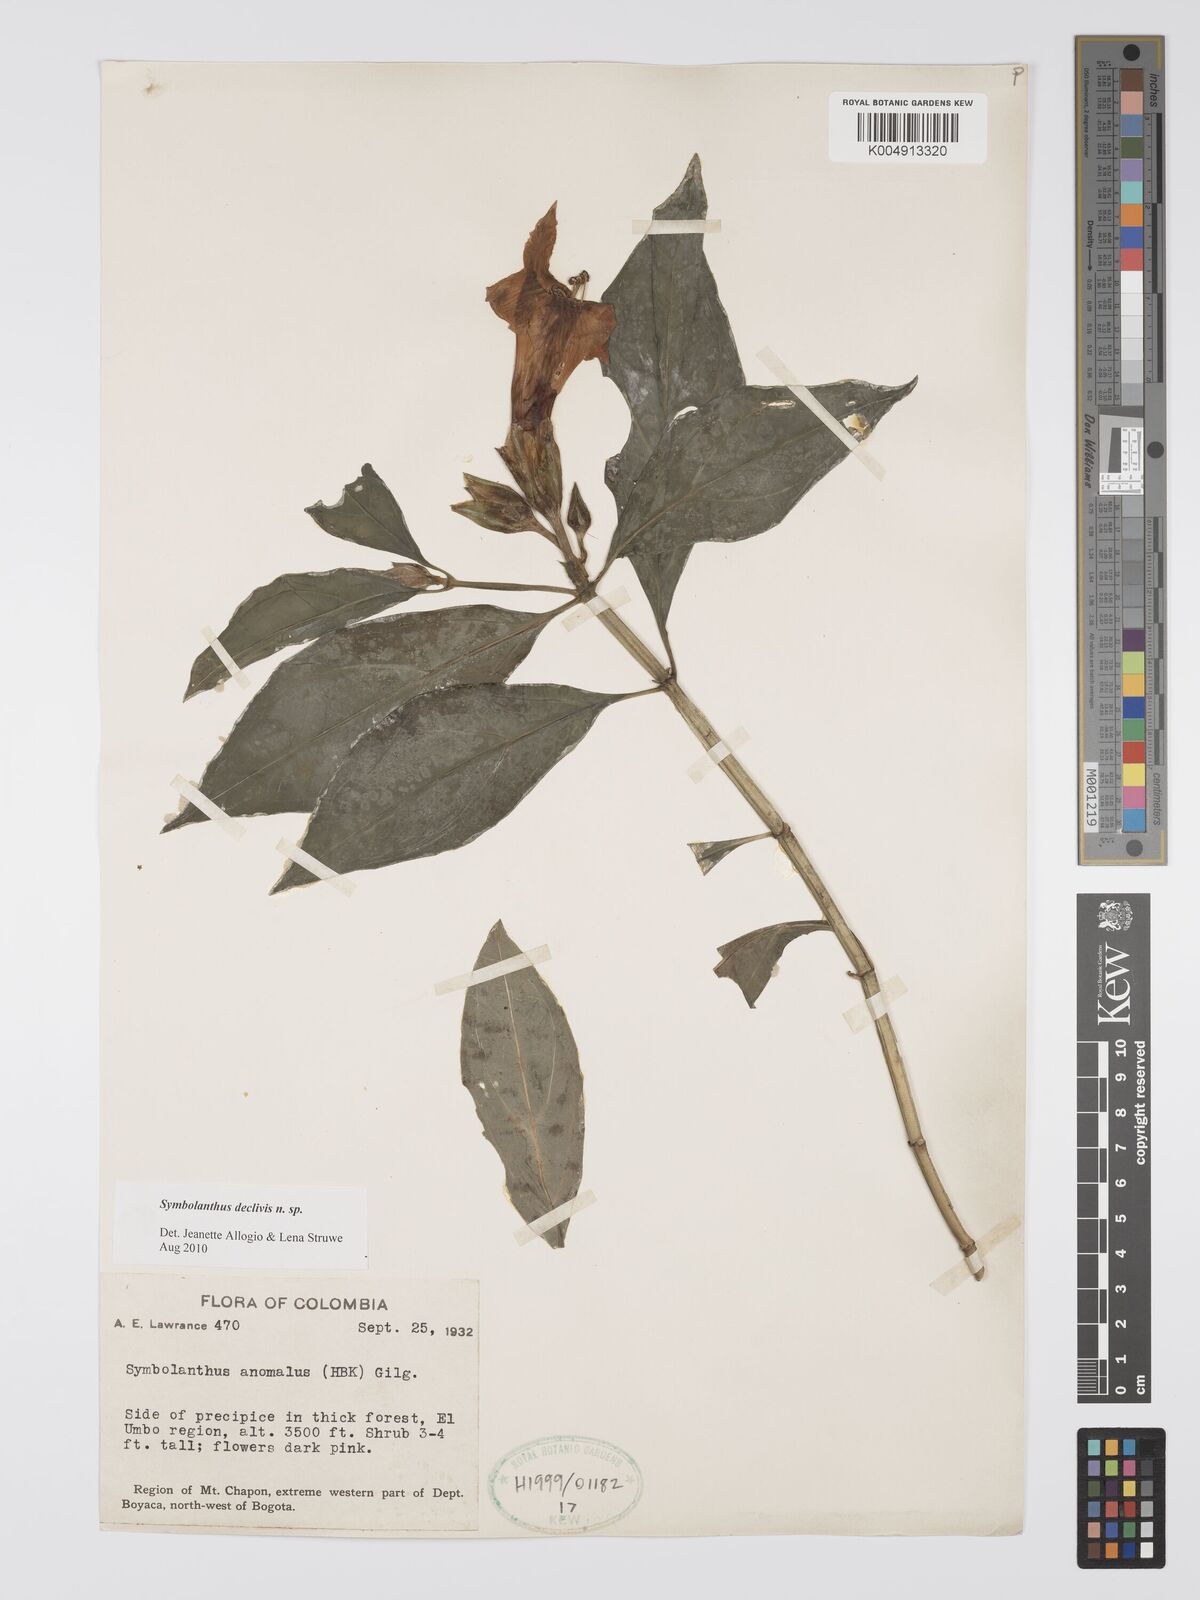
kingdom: Plantae
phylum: Tracheophyta
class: Magnoliopsida
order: Gentianales
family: Gentianaceae
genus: Symbolanthus
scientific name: Symbolanthus
